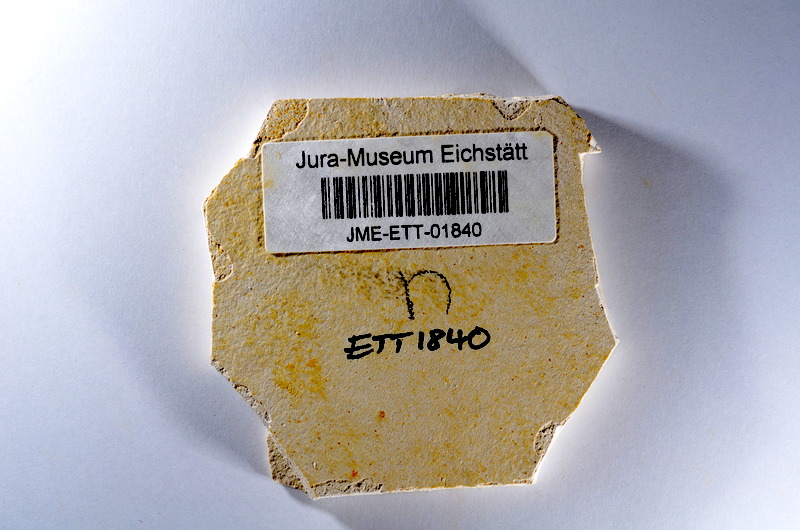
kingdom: Animalia
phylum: Chordata
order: Salmoniformes
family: Orthogonikleithridae
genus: Orthogonikleithrus
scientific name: Orthogonikleithrus hoelli
